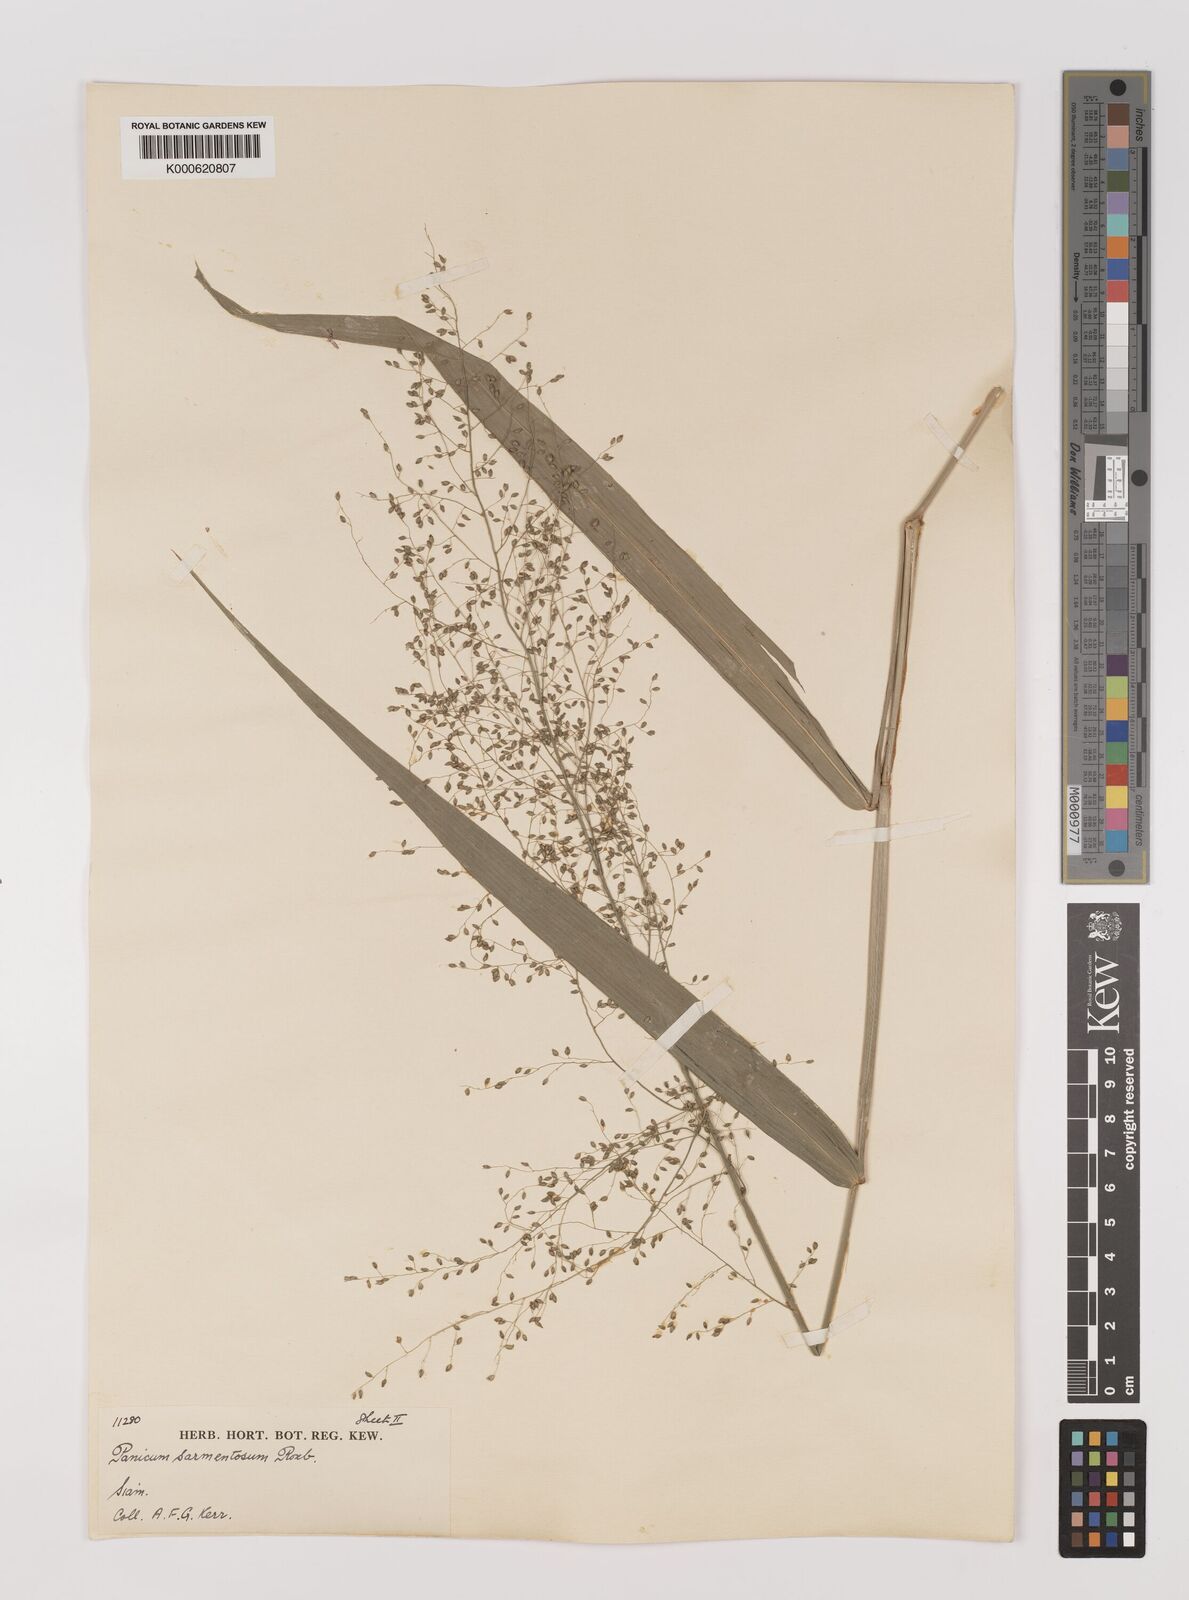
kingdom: Plantae
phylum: Tracheophyta
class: Liliopsida
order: Poales
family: Poaceae
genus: Panicum
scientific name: Panicum sarmentosum
